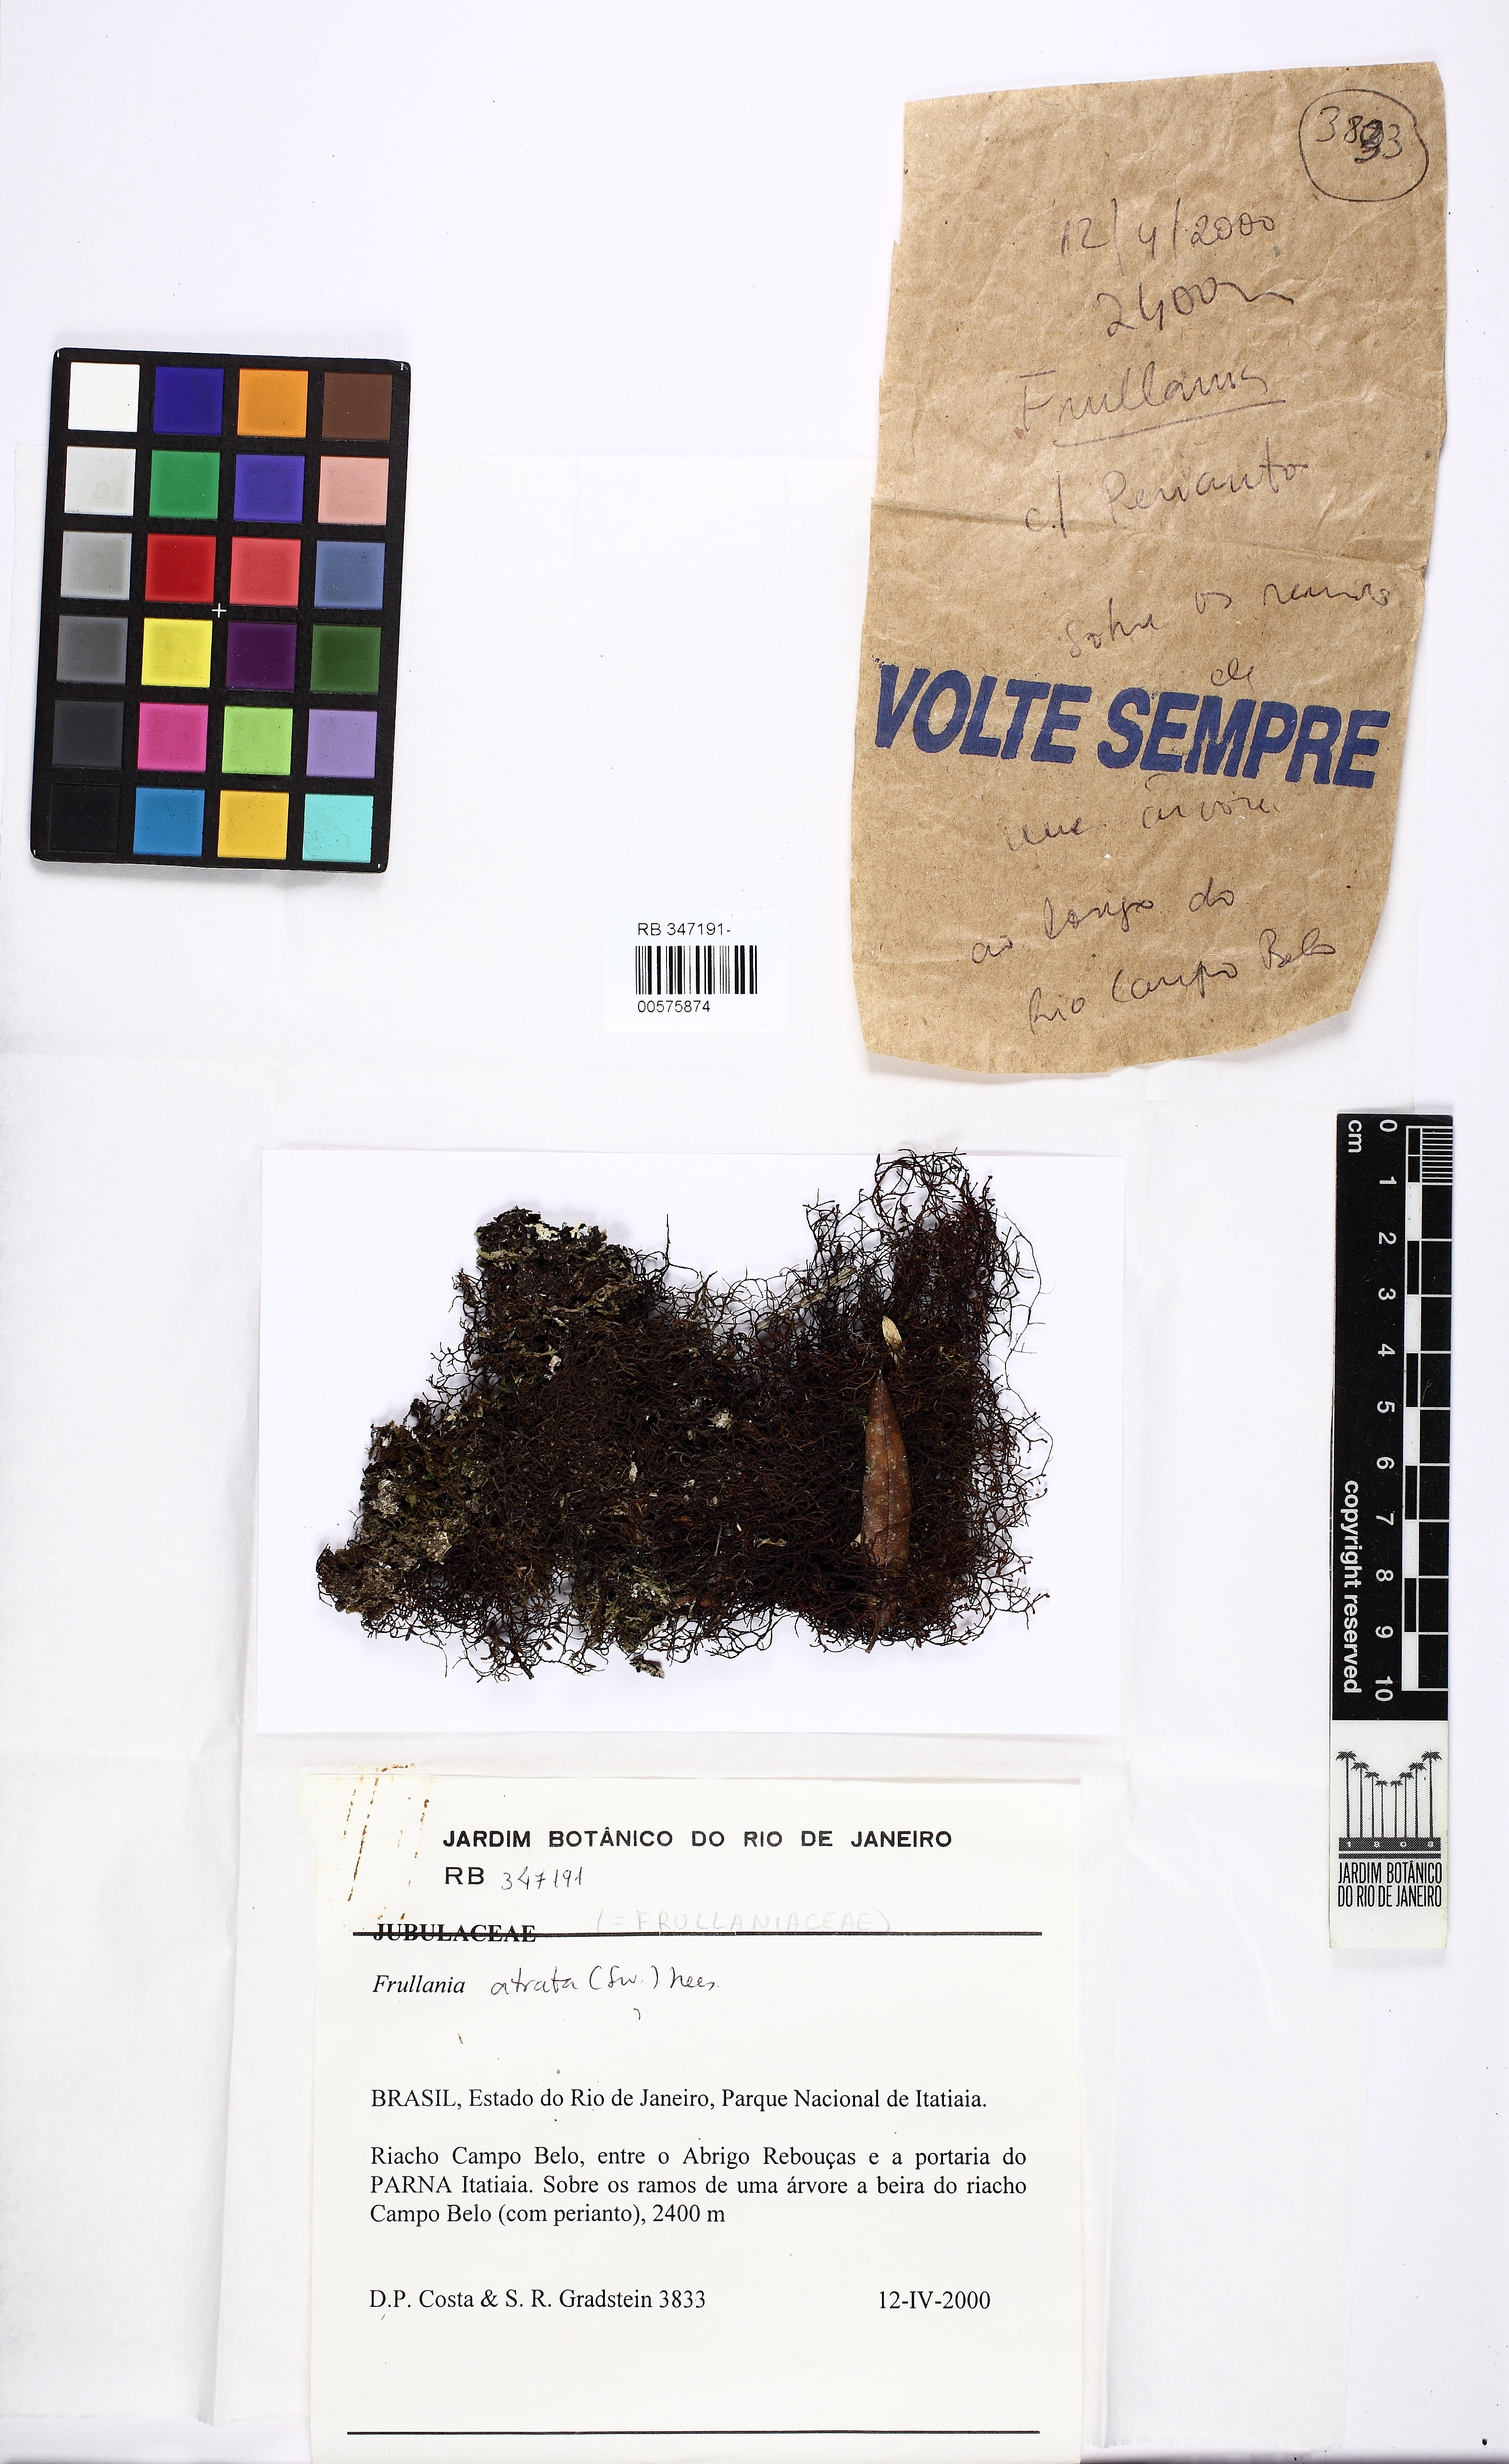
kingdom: Plantae
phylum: Marchantiophyta
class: Jungermanniopsida
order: Porellales
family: Frullaniaceae
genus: Frullania
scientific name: Frullania atrata
